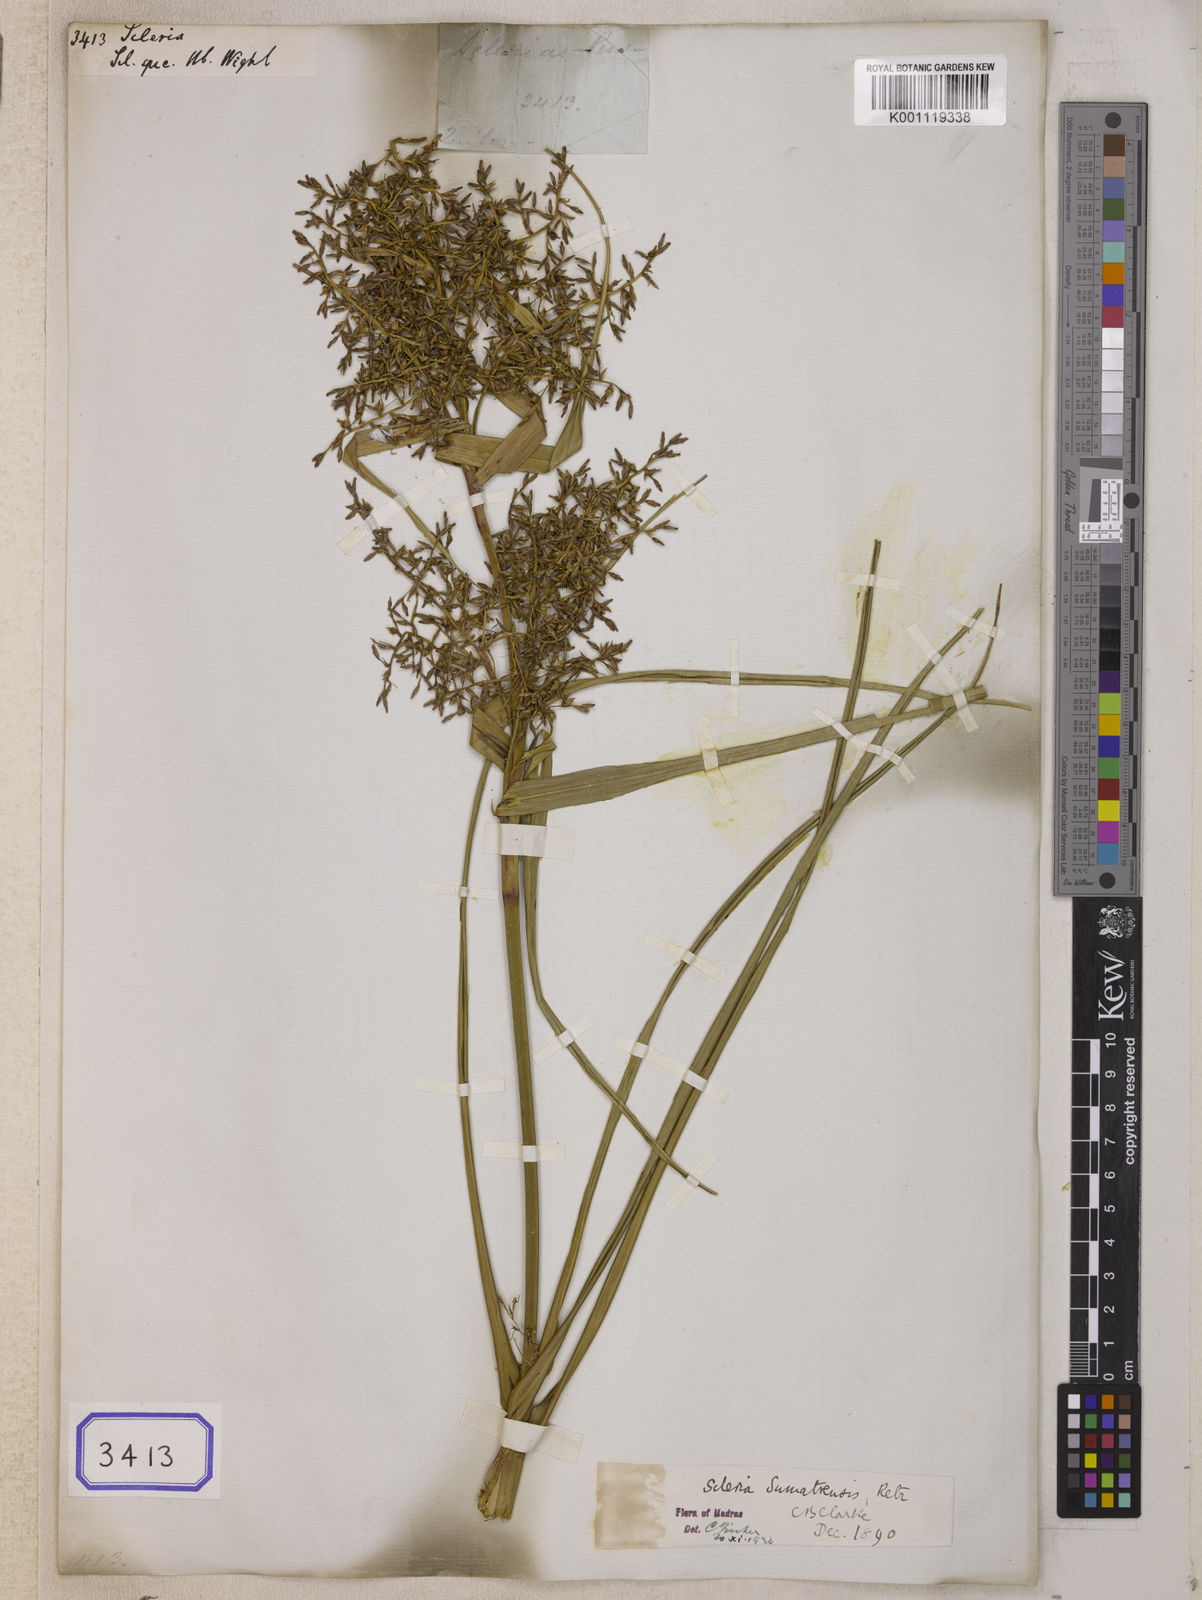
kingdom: Plantae
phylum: Tracheophyta
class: Liliopsida
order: Poales
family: Cyperaceae
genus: Scleria
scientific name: Scleria
